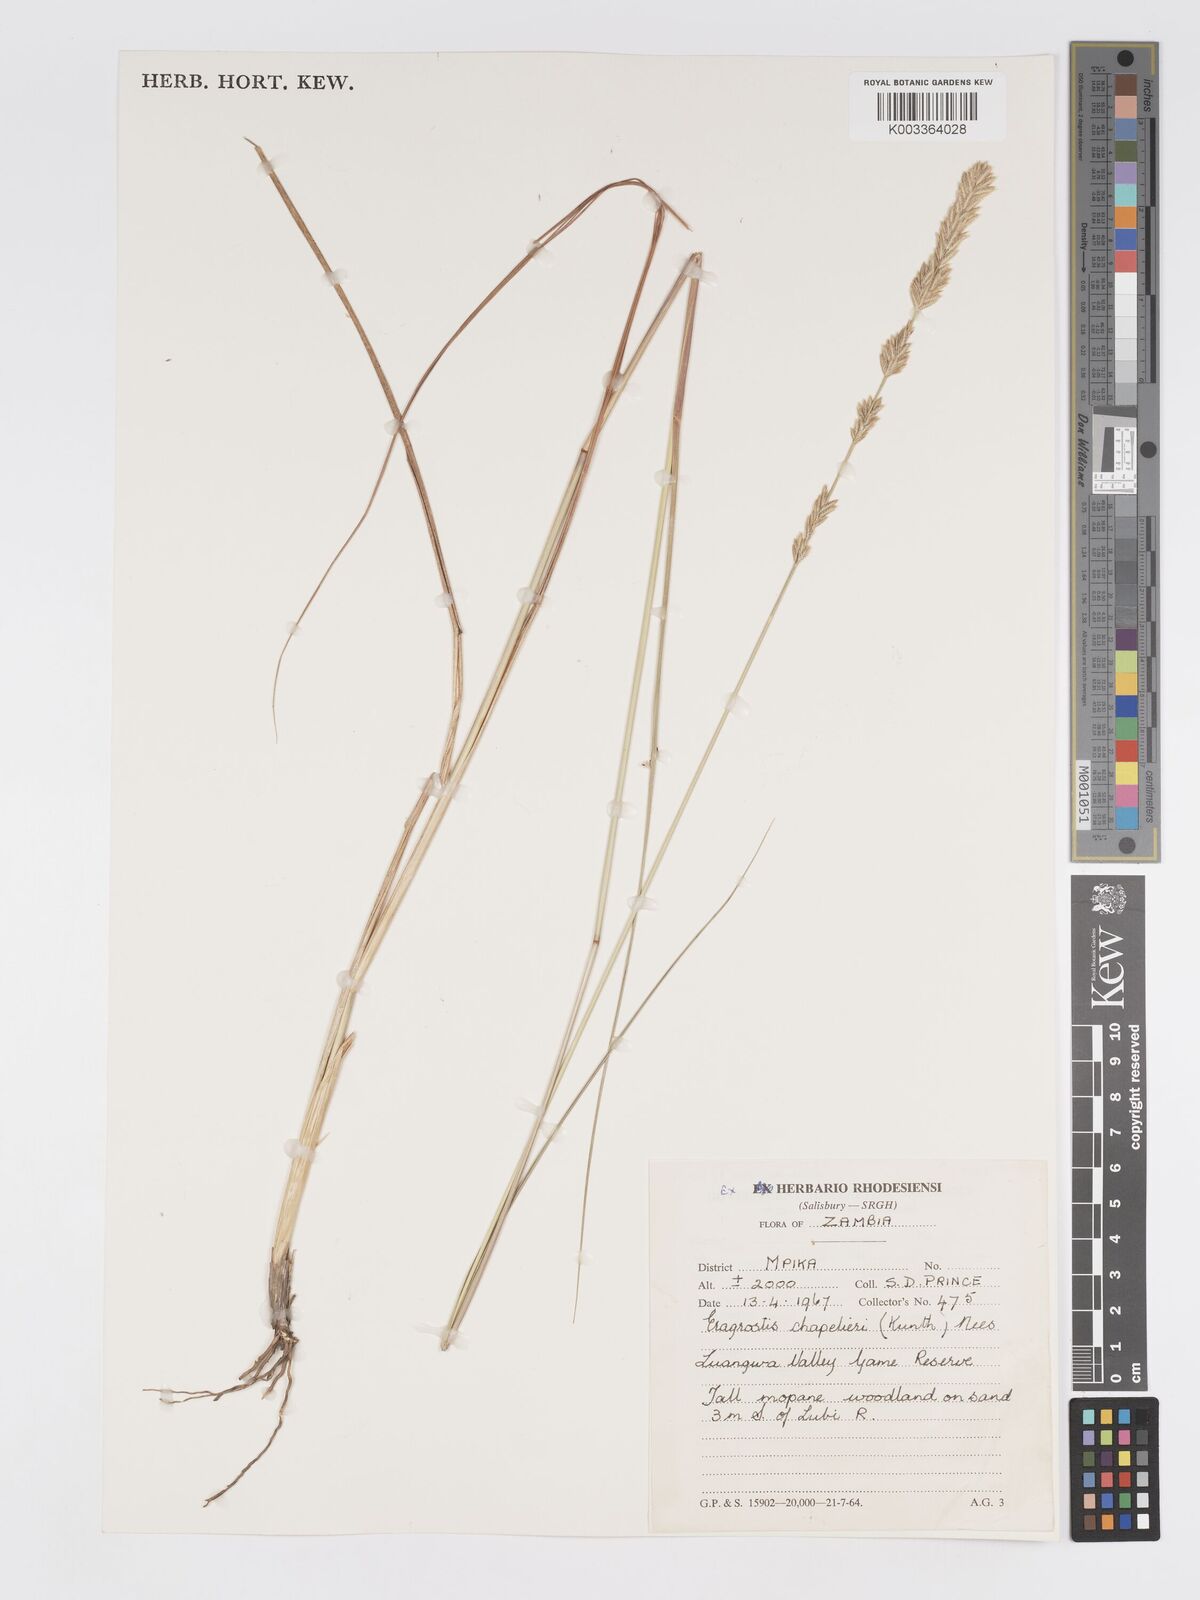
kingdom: Plantae
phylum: Tracheophyta
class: Liliopsida
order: Poales
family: Poaceae
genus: Eragrostis
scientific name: Eragrostis chapelieri
